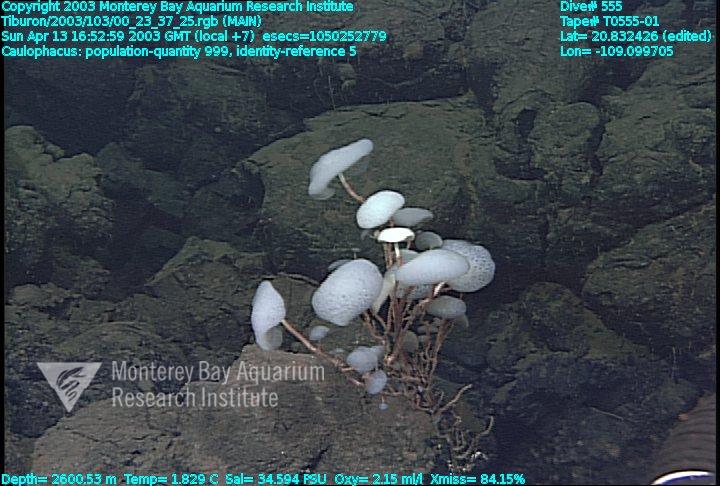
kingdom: Animalia
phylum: Porifera
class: Hexactinellida
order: Lyssacinosida
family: Rossellidae
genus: Caulophacus
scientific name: Caulophacus
